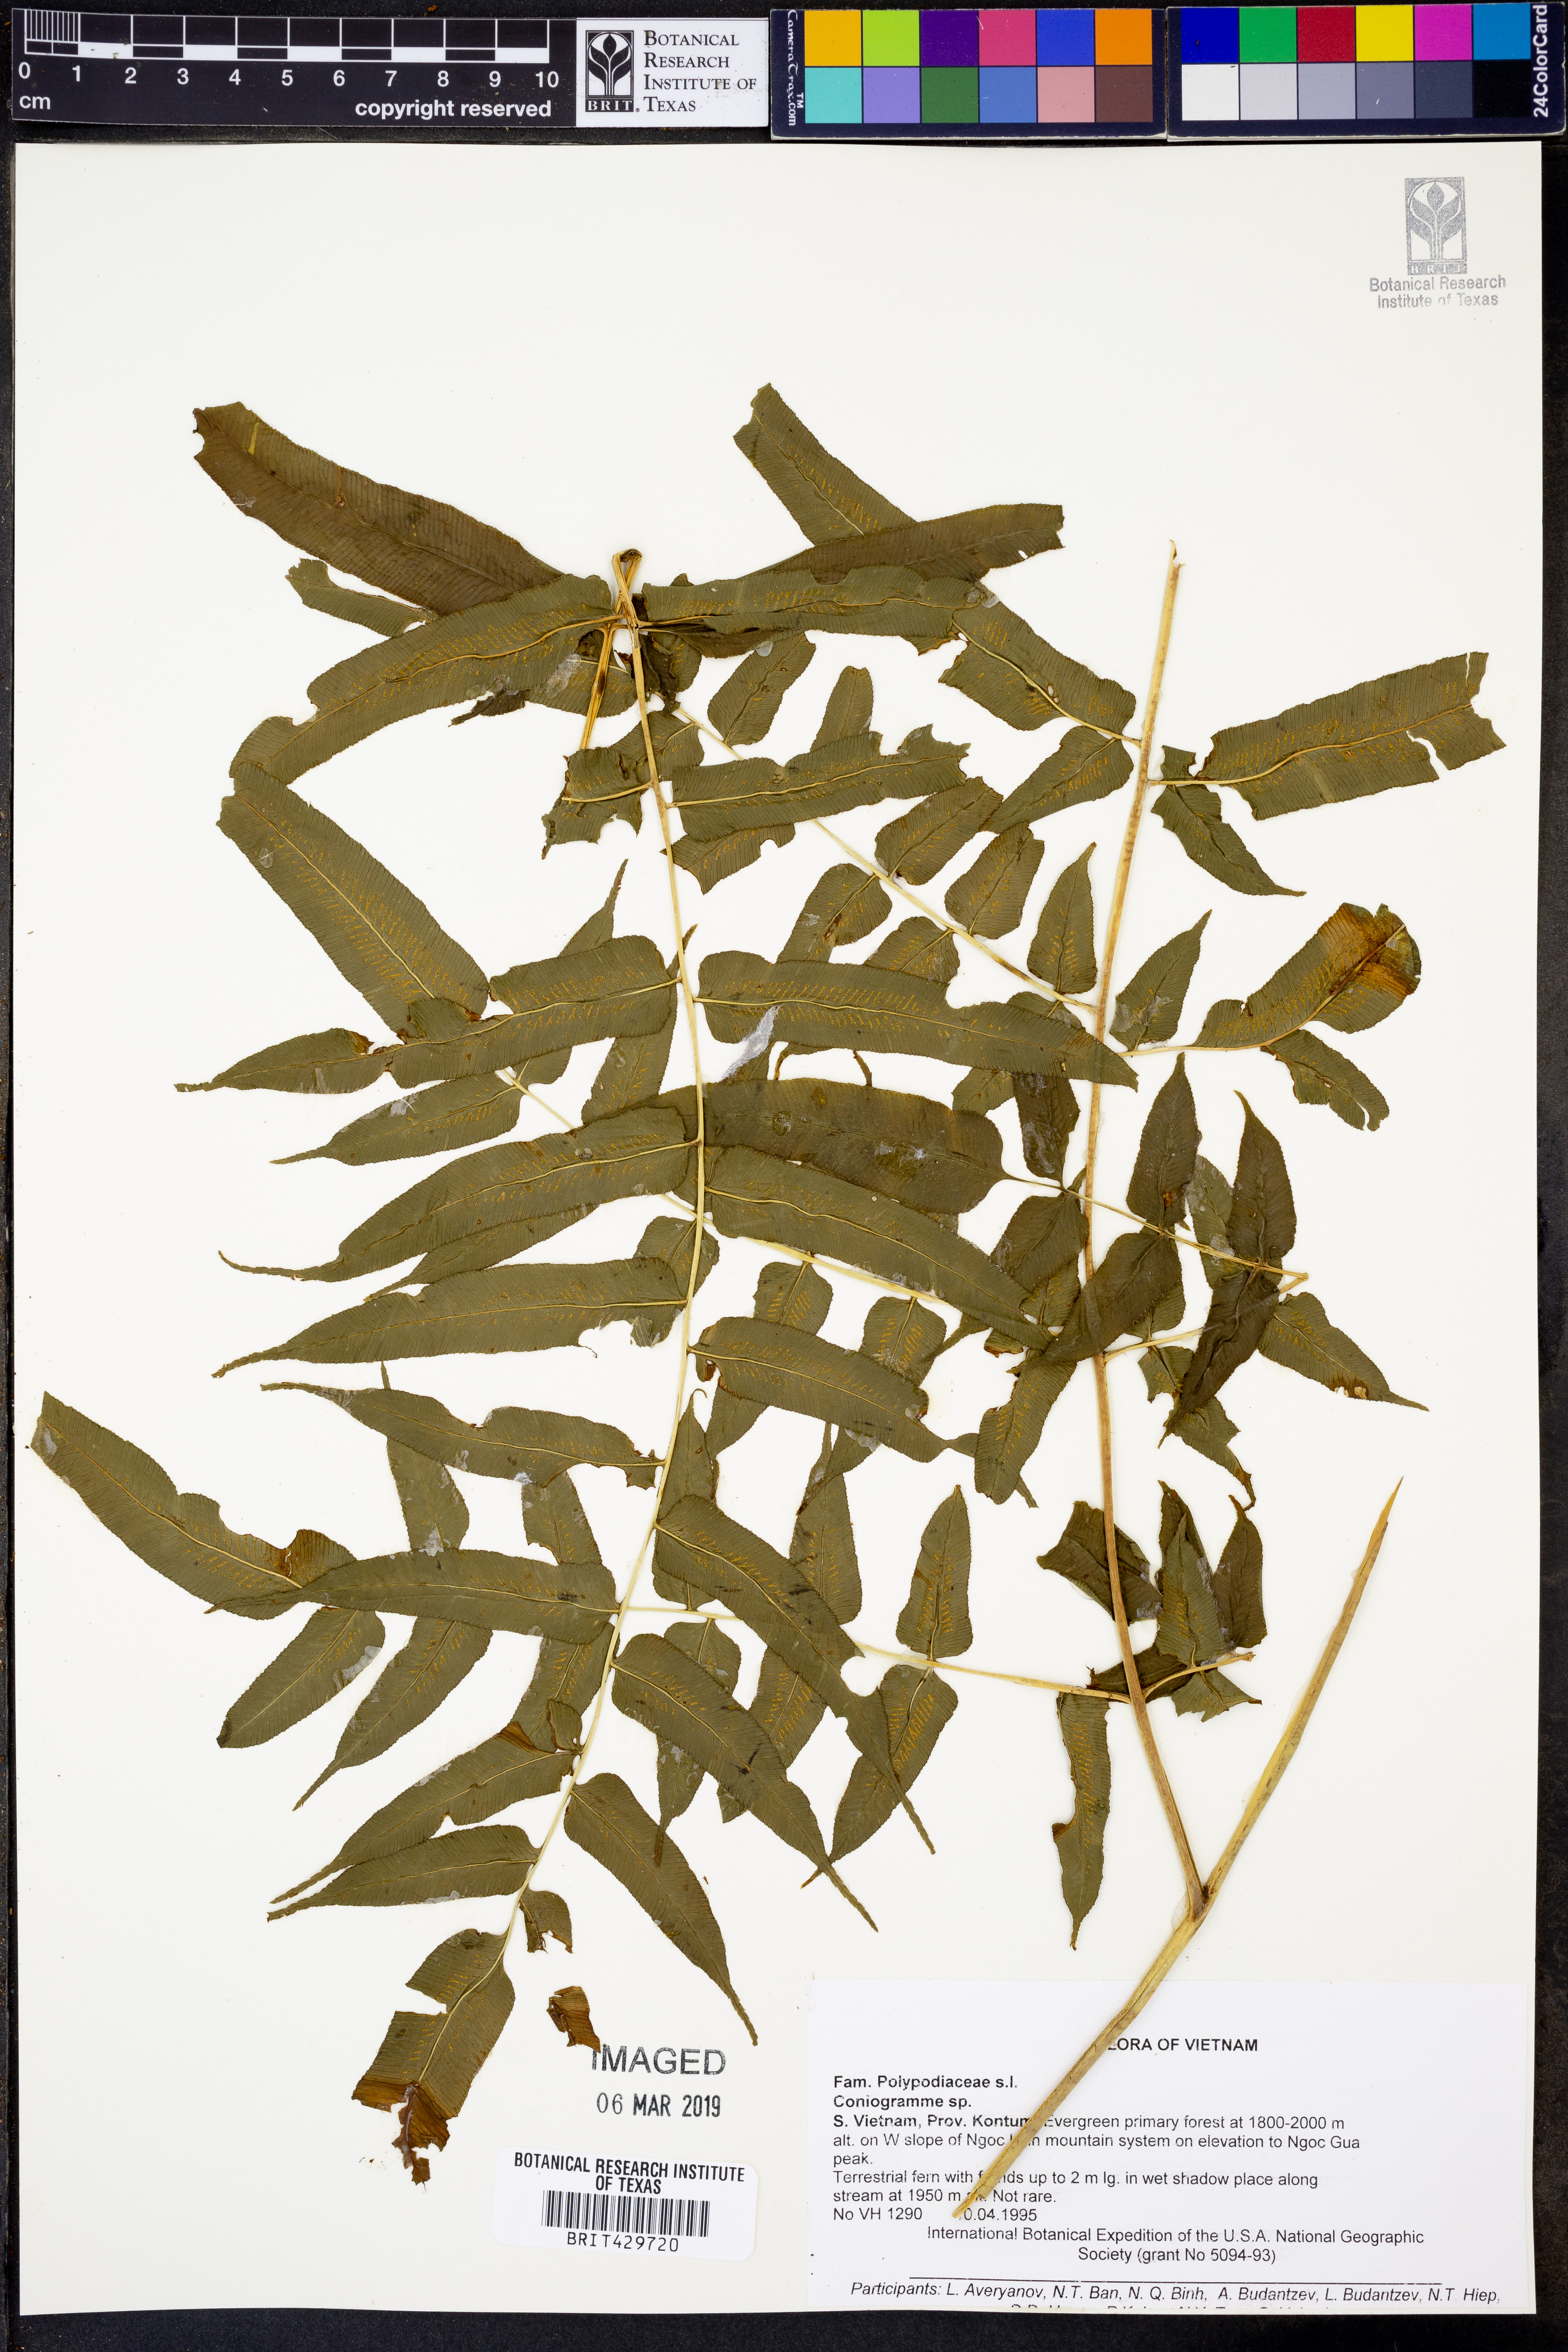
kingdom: Plantae
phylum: Tracheophyta
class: Polypodiopsida
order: Polypodiales
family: Pteridaceae
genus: Coniogramme
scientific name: Coniogramme
